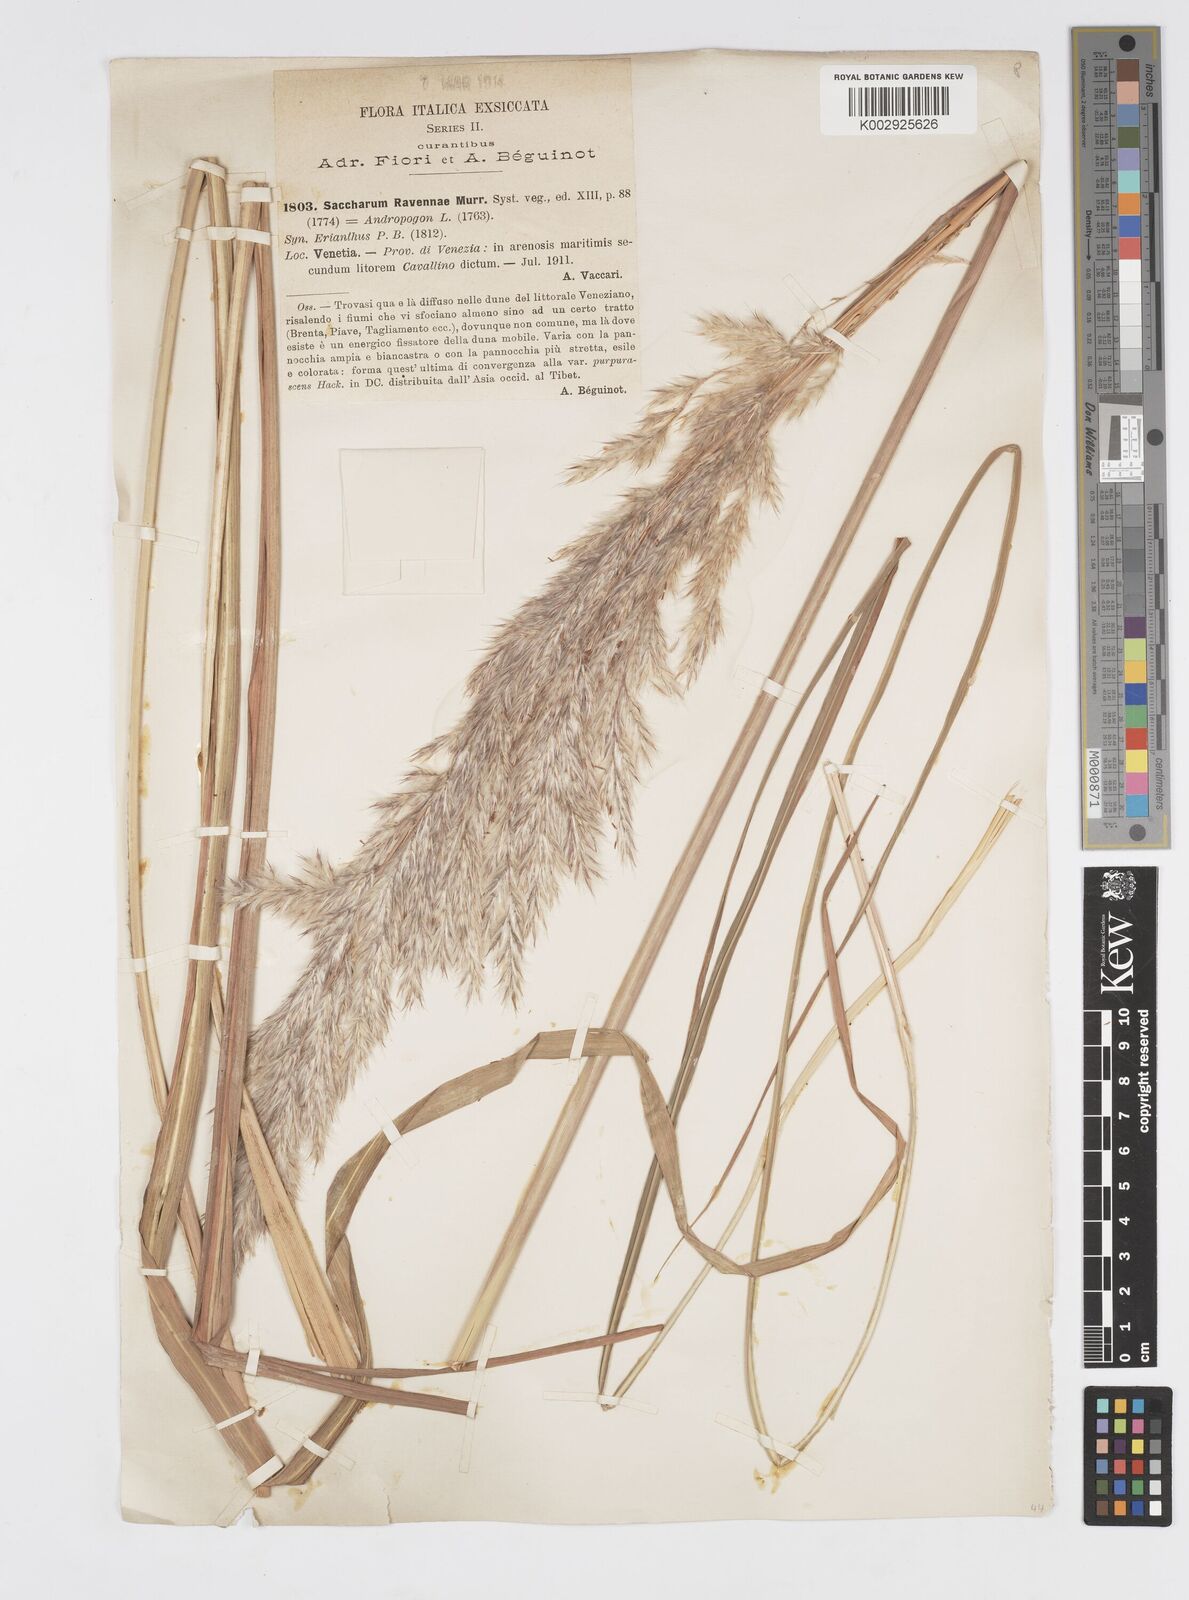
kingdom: Plantae
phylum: Tracheophyta
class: Liliopsida
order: Poales
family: Poaceae
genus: Tripidium
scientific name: Tripidium ravennae
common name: Ravenna grass
